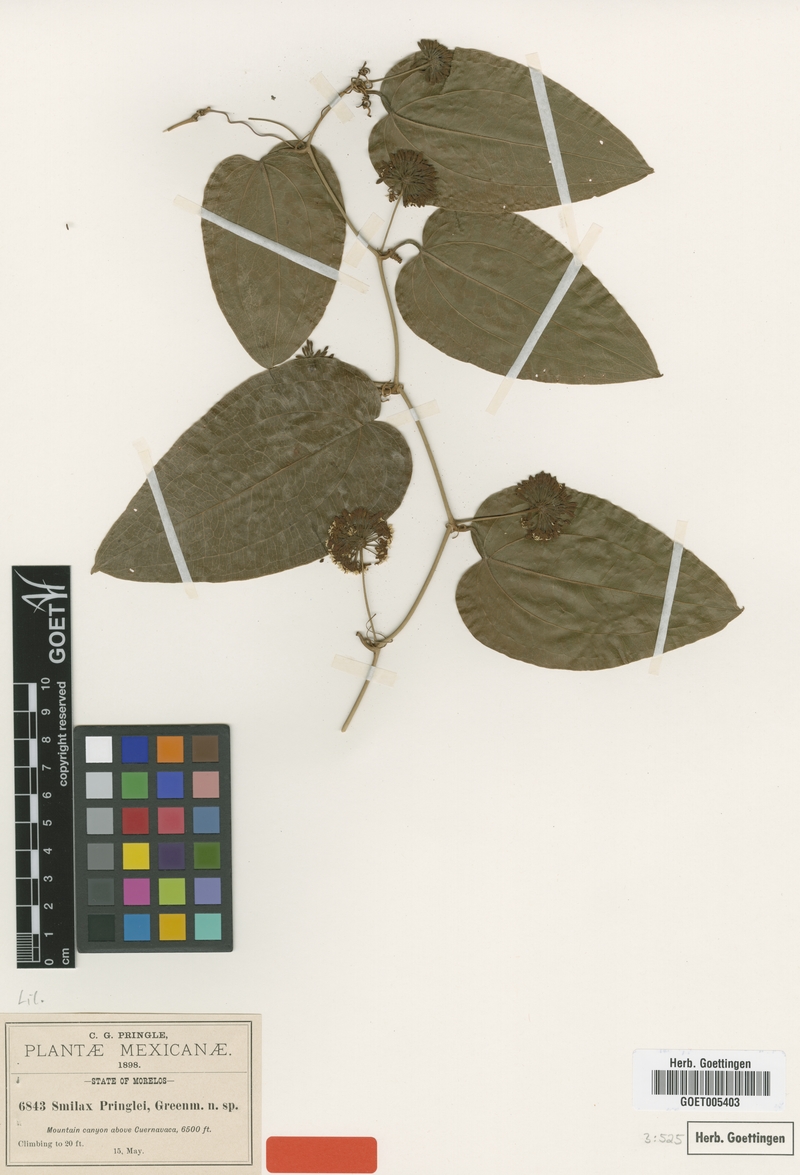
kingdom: Plantae
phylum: Tracheophyta
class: Liliopsida
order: Liliales
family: Smilacaceae
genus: Smilax
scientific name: Smilax mollis
